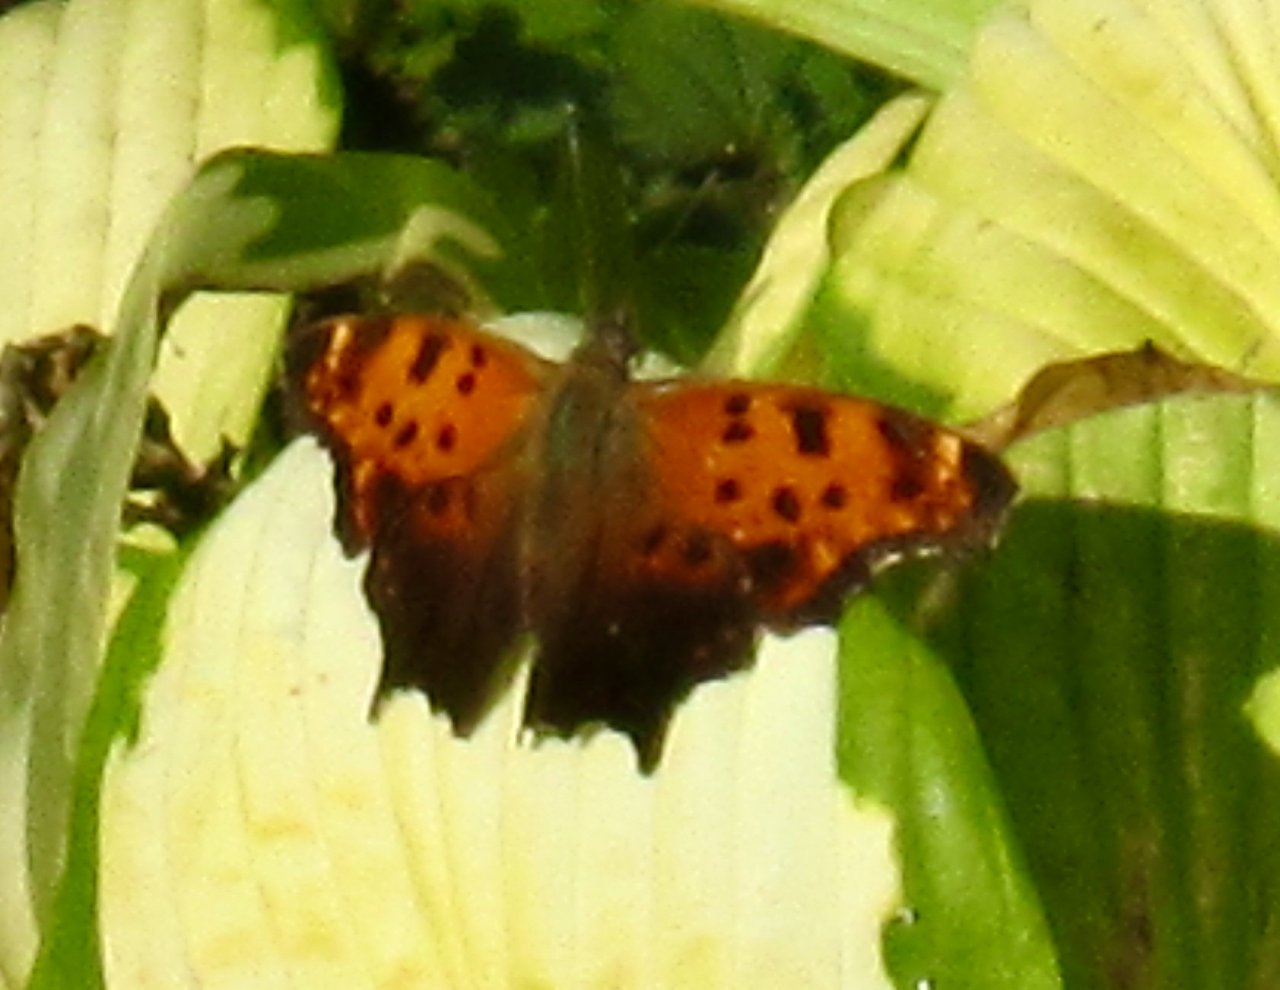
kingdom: Animalia
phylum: Arthropoda
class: Insecta
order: Lepidoptera
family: Nymphalidae
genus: Polygonia
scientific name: Polygonia comma
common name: Eastern Comma
